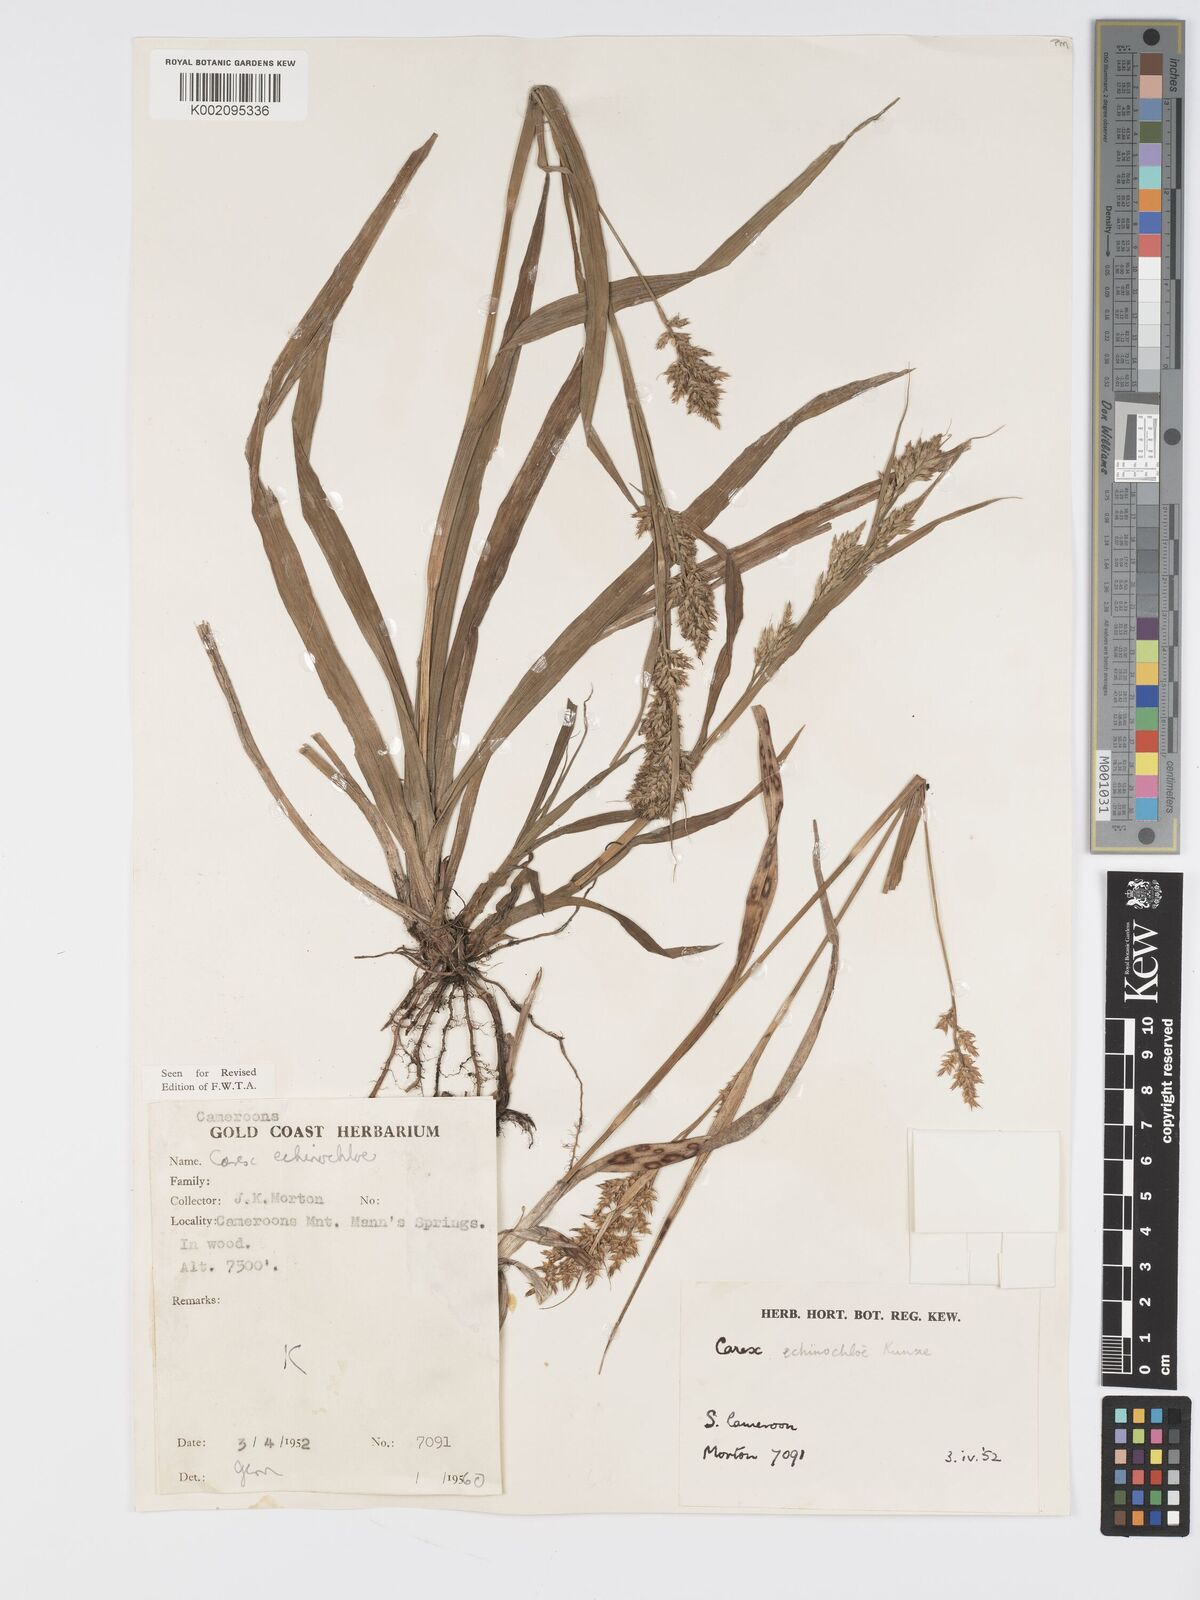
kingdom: Plantae
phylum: Tracheophyta
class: Liliopsida
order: Poales
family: Cyperaceae
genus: Carex
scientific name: Carex echinochloe
